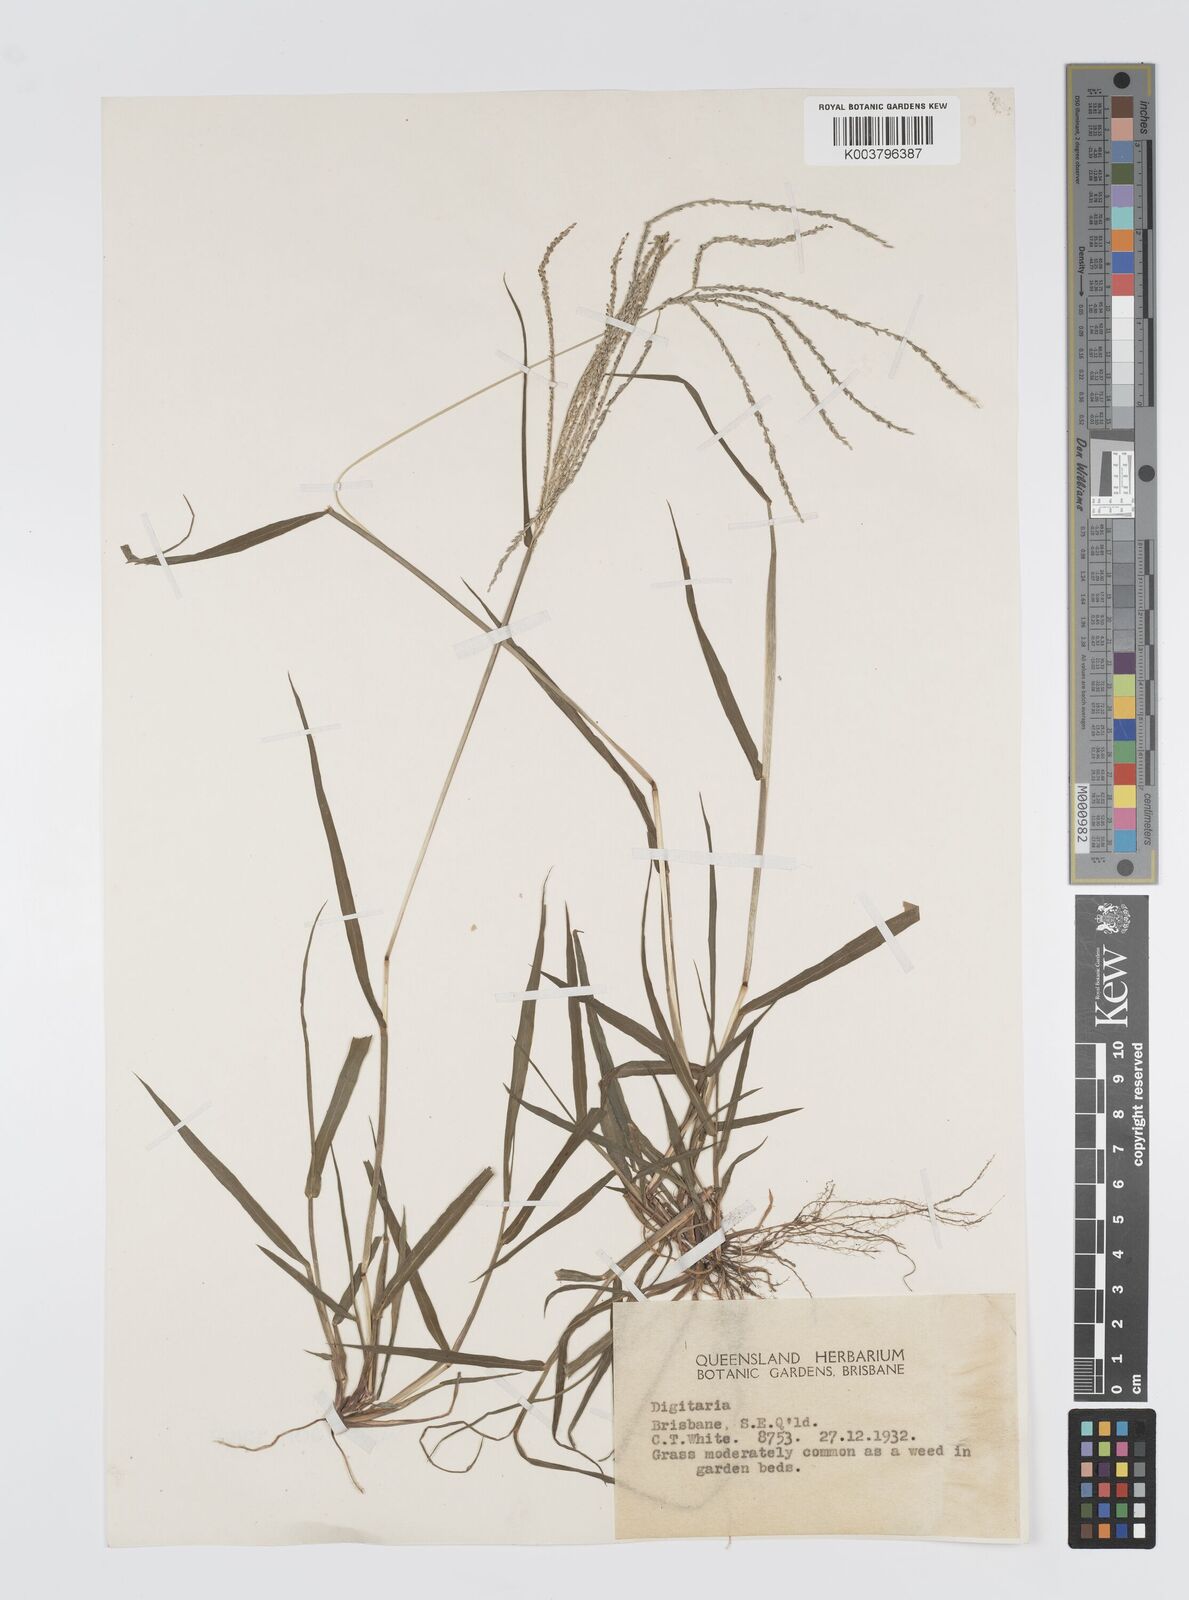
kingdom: Plantae
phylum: Tracheophyta
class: Liliopsida
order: Poales
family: Poaceae
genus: Digitaria
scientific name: Digitaria violascens
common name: Violet crabgrass
